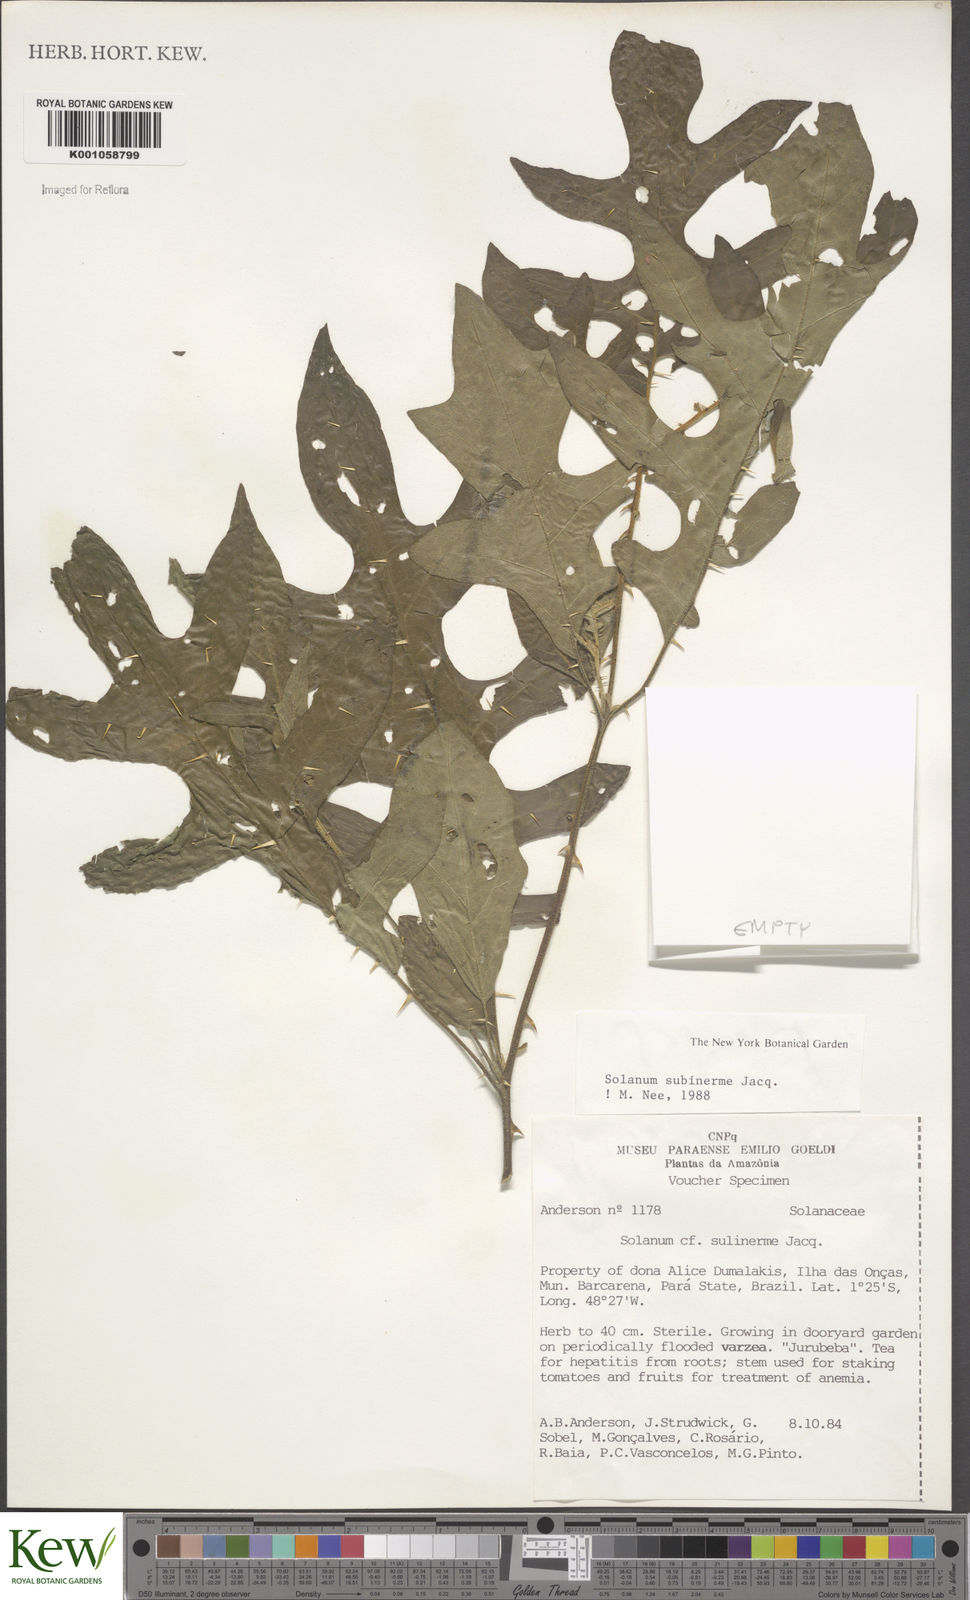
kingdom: Plantae
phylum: Tracheophyta
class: Magnoliopsida
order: Solanales
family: Solanaceae
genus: Solanum
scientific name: Solanum subinerme
